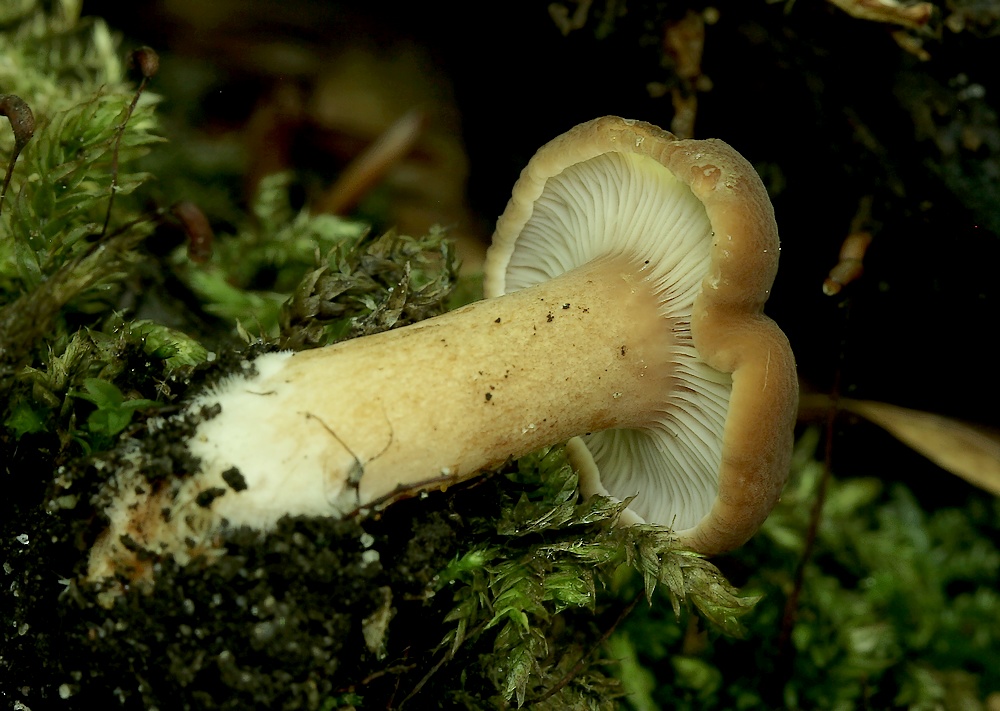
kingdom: Fungi
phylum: Basidiomycota
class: Agaricomycetes
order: Russulales
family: Russulaceae
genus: Lactarius
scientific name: Lactarius subdulcis
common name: sødlig mælkehat
